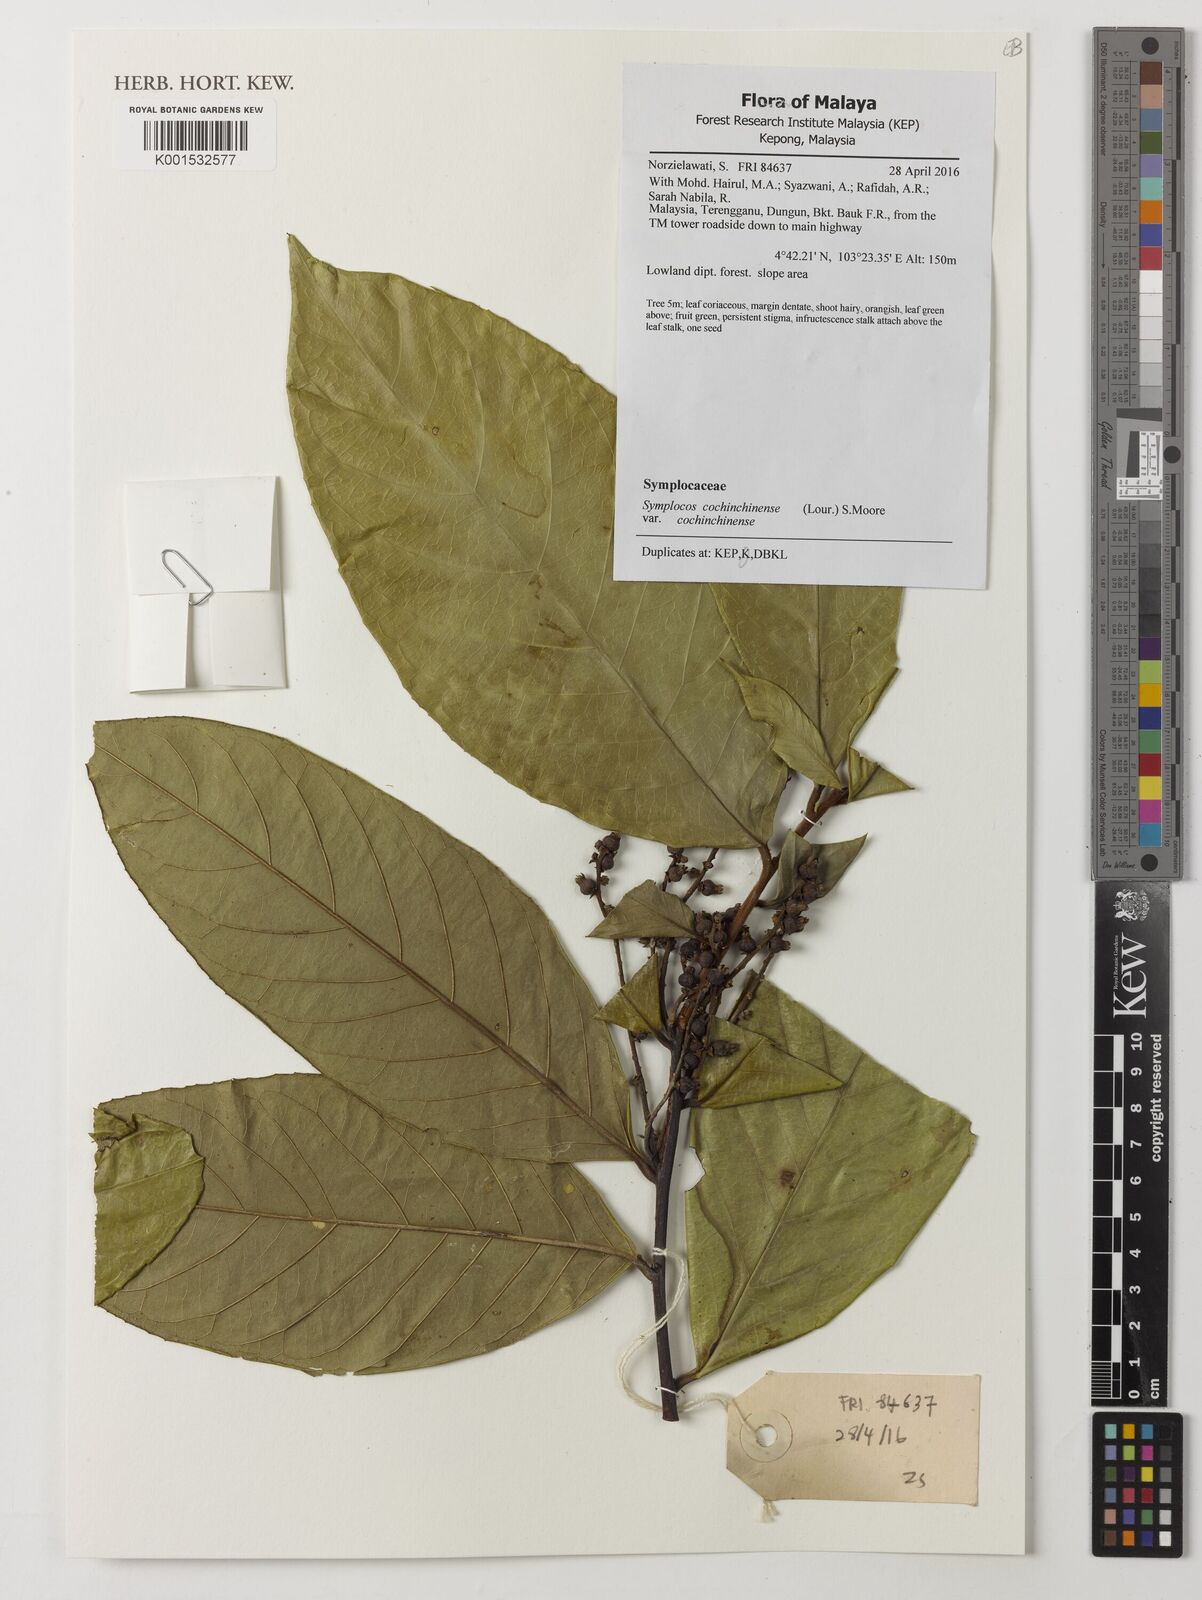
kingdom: Plantae
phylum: Tracheophyta
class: Magnoliopsida
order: Ericales
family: Symplocaceae
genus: Symplocos
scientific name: Symplocos cochinchinensis
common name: Buff hazelwood
